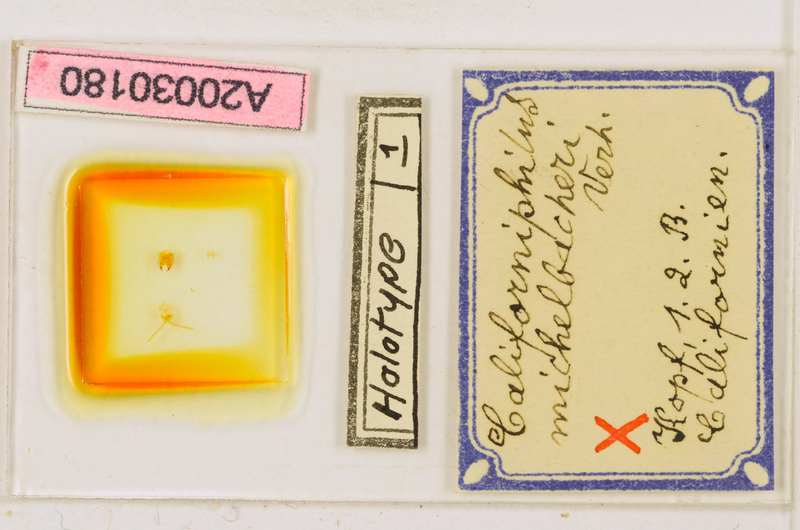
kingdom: Animalia
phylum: Arthropoda
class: Chilopoda
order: Geophilomorpha
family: Himantariidae
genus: Stigmatogaster
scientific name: Stigmatogaster subterranea
